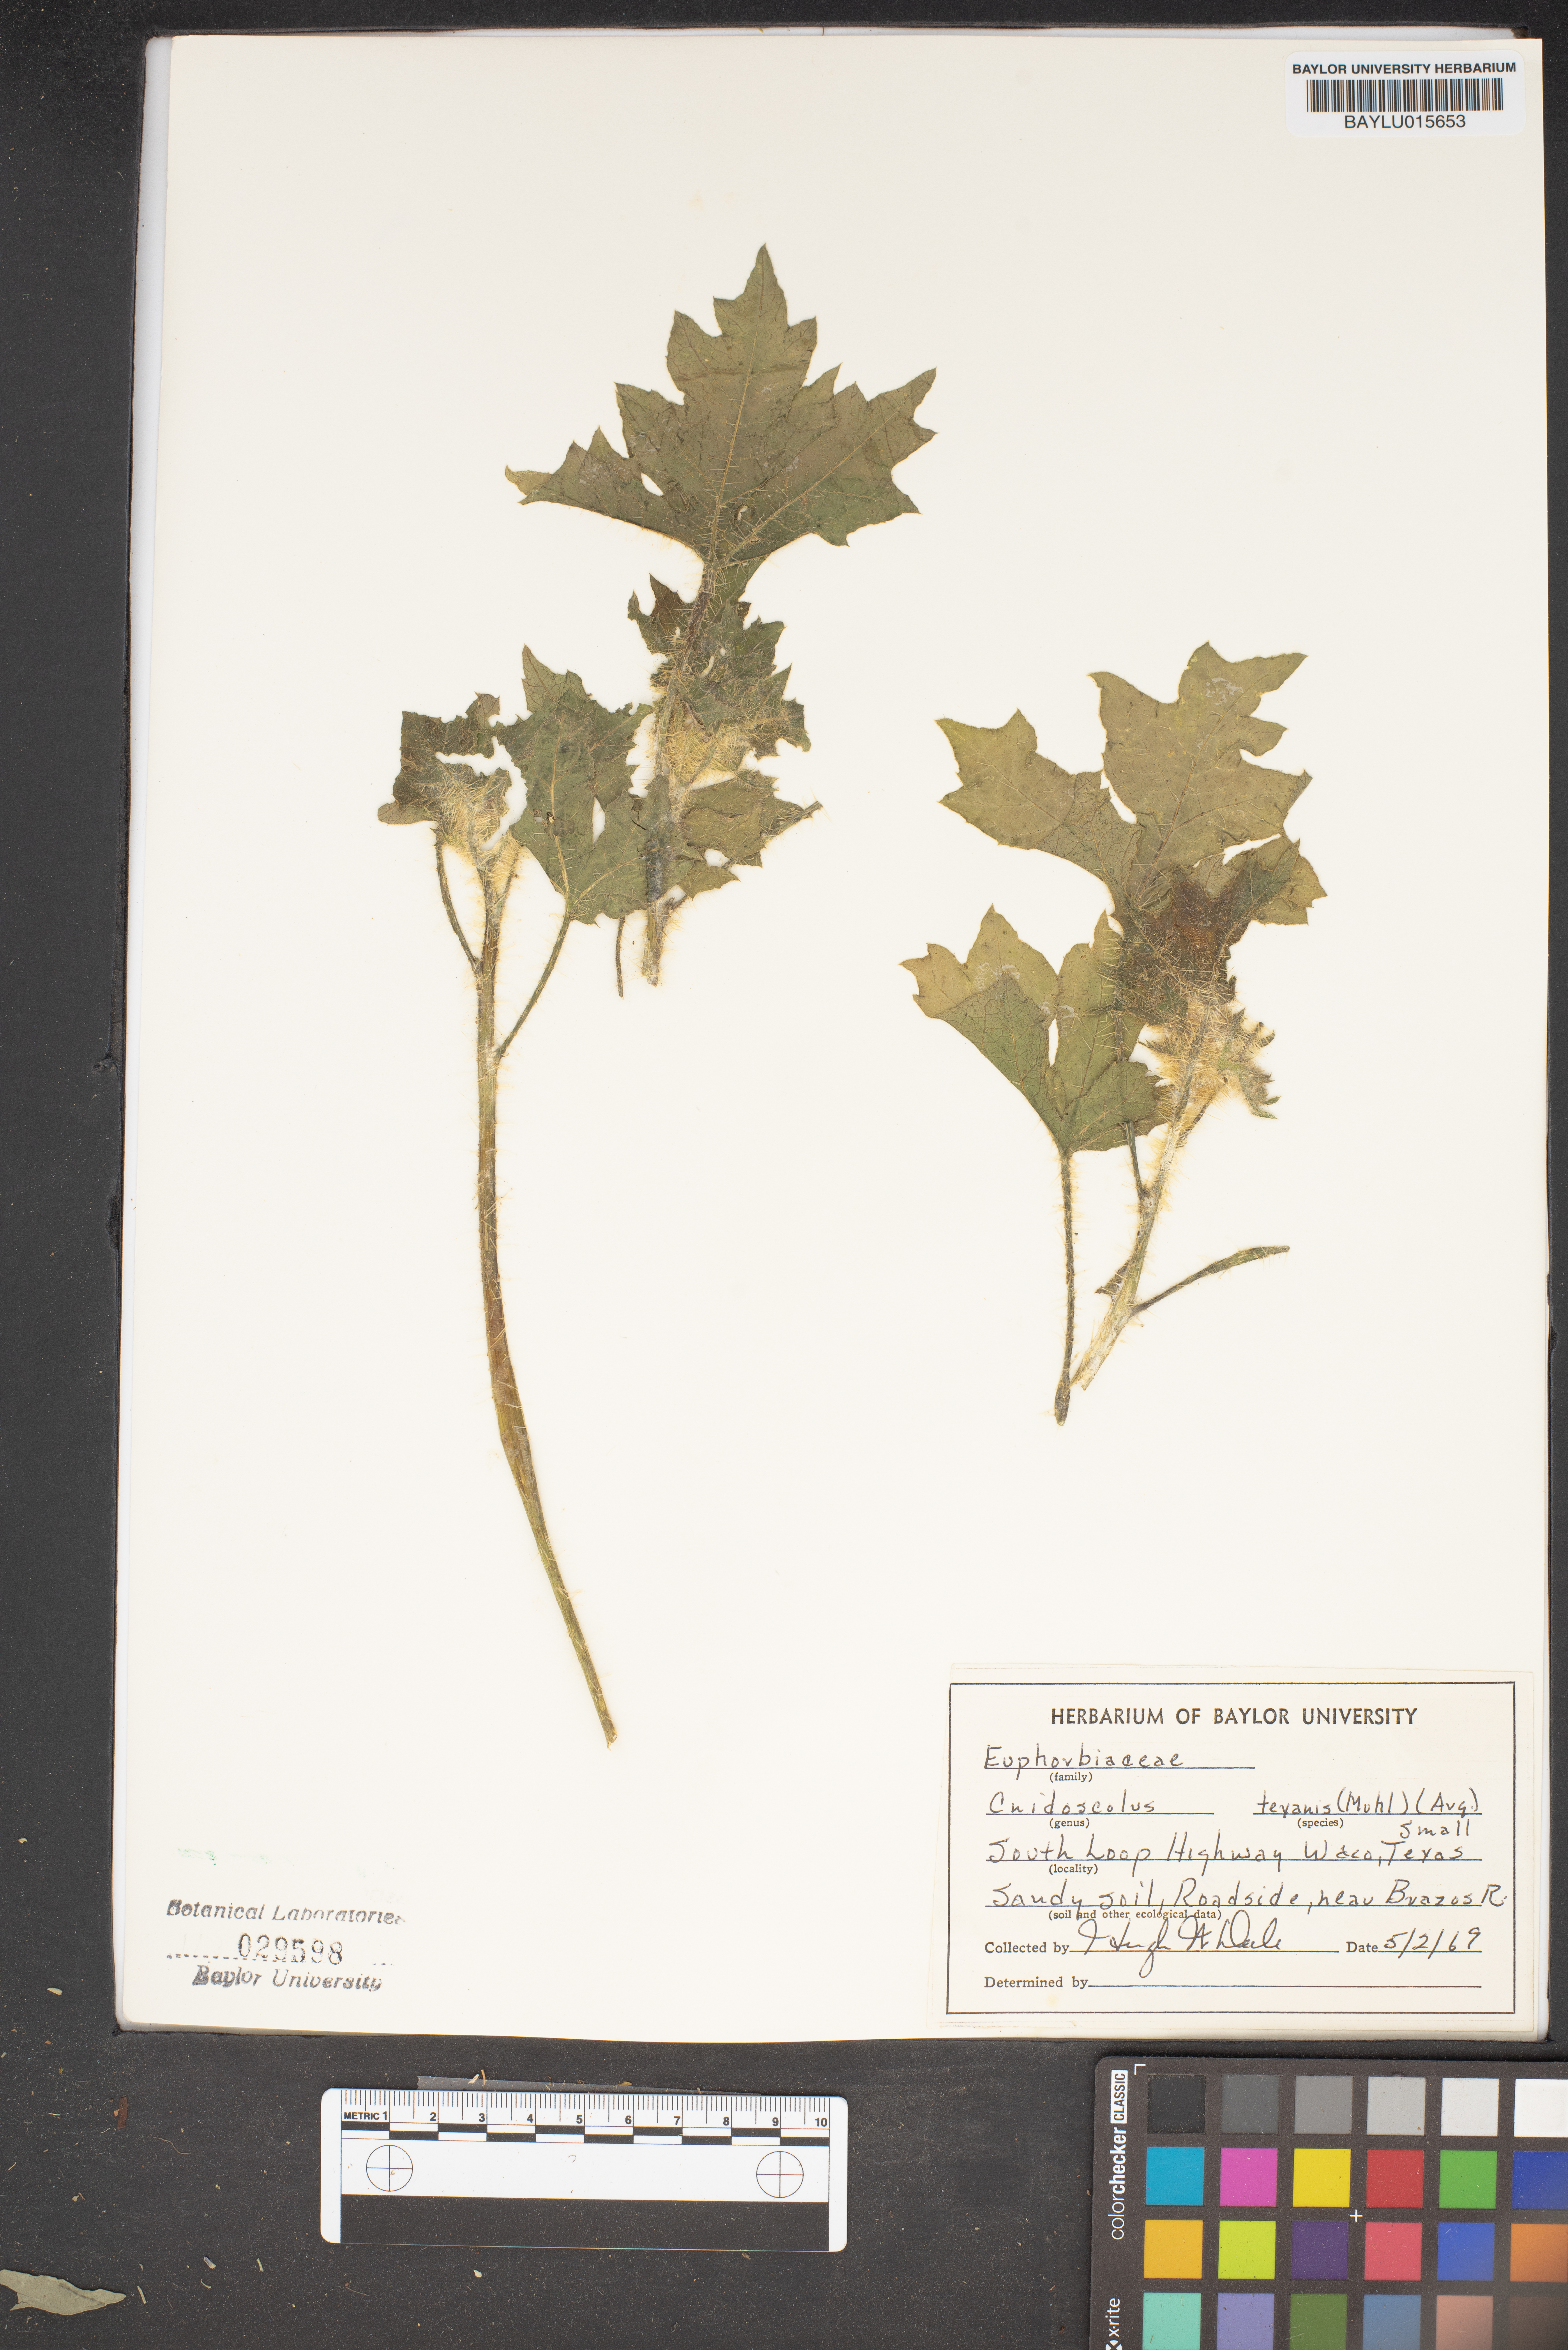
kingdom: Plantae
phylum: Tracheophyta
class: Magnoliopsida
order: Malpighiales
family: Euphorbiaceae
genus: Cnidoscolus
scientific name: Cnidoscolus texanus
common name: Texas bull-nettle
